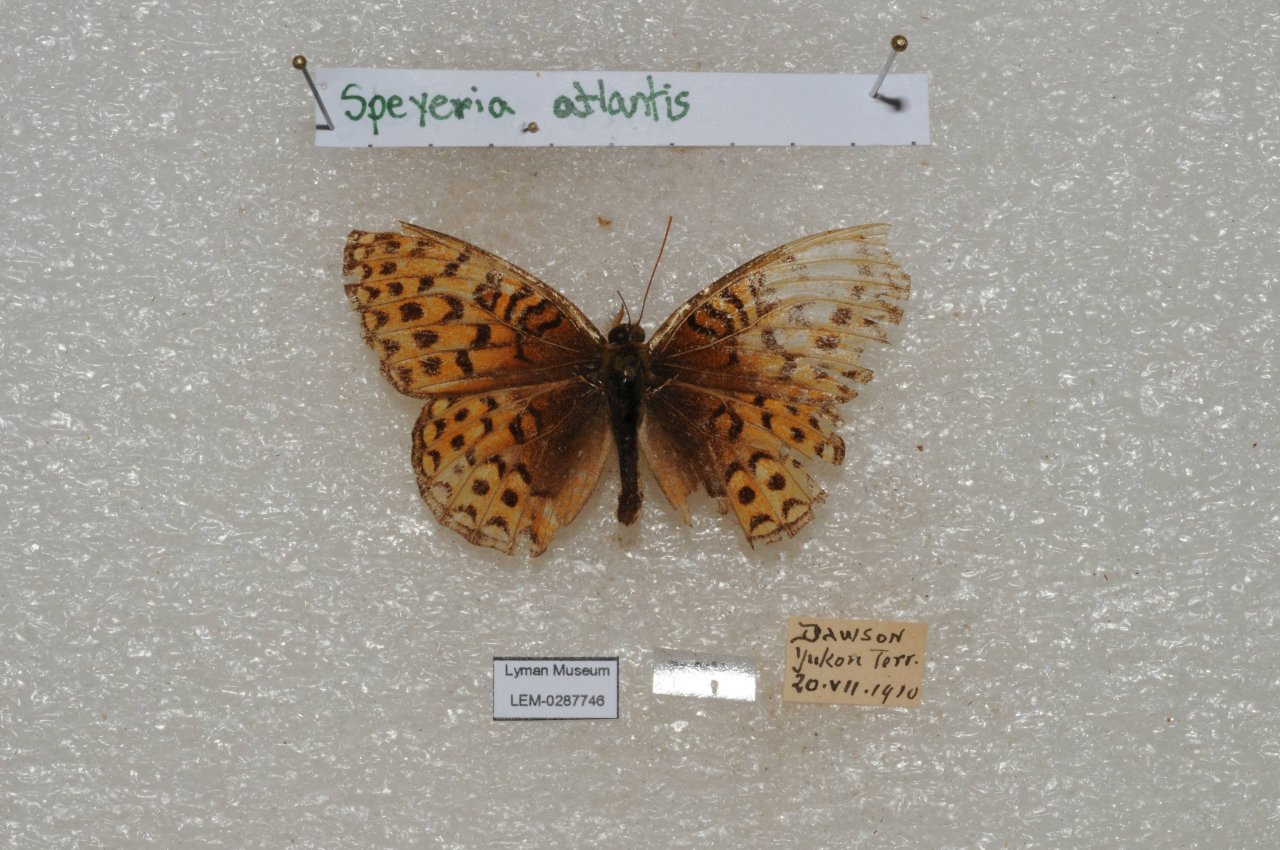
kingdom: Animalia
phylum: Arthropoda
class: Insecta
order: Lepidoptera
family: Nymphalidae
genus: Speyeria
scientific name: Speyeria atlantis
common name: Northwestern Fritillary
